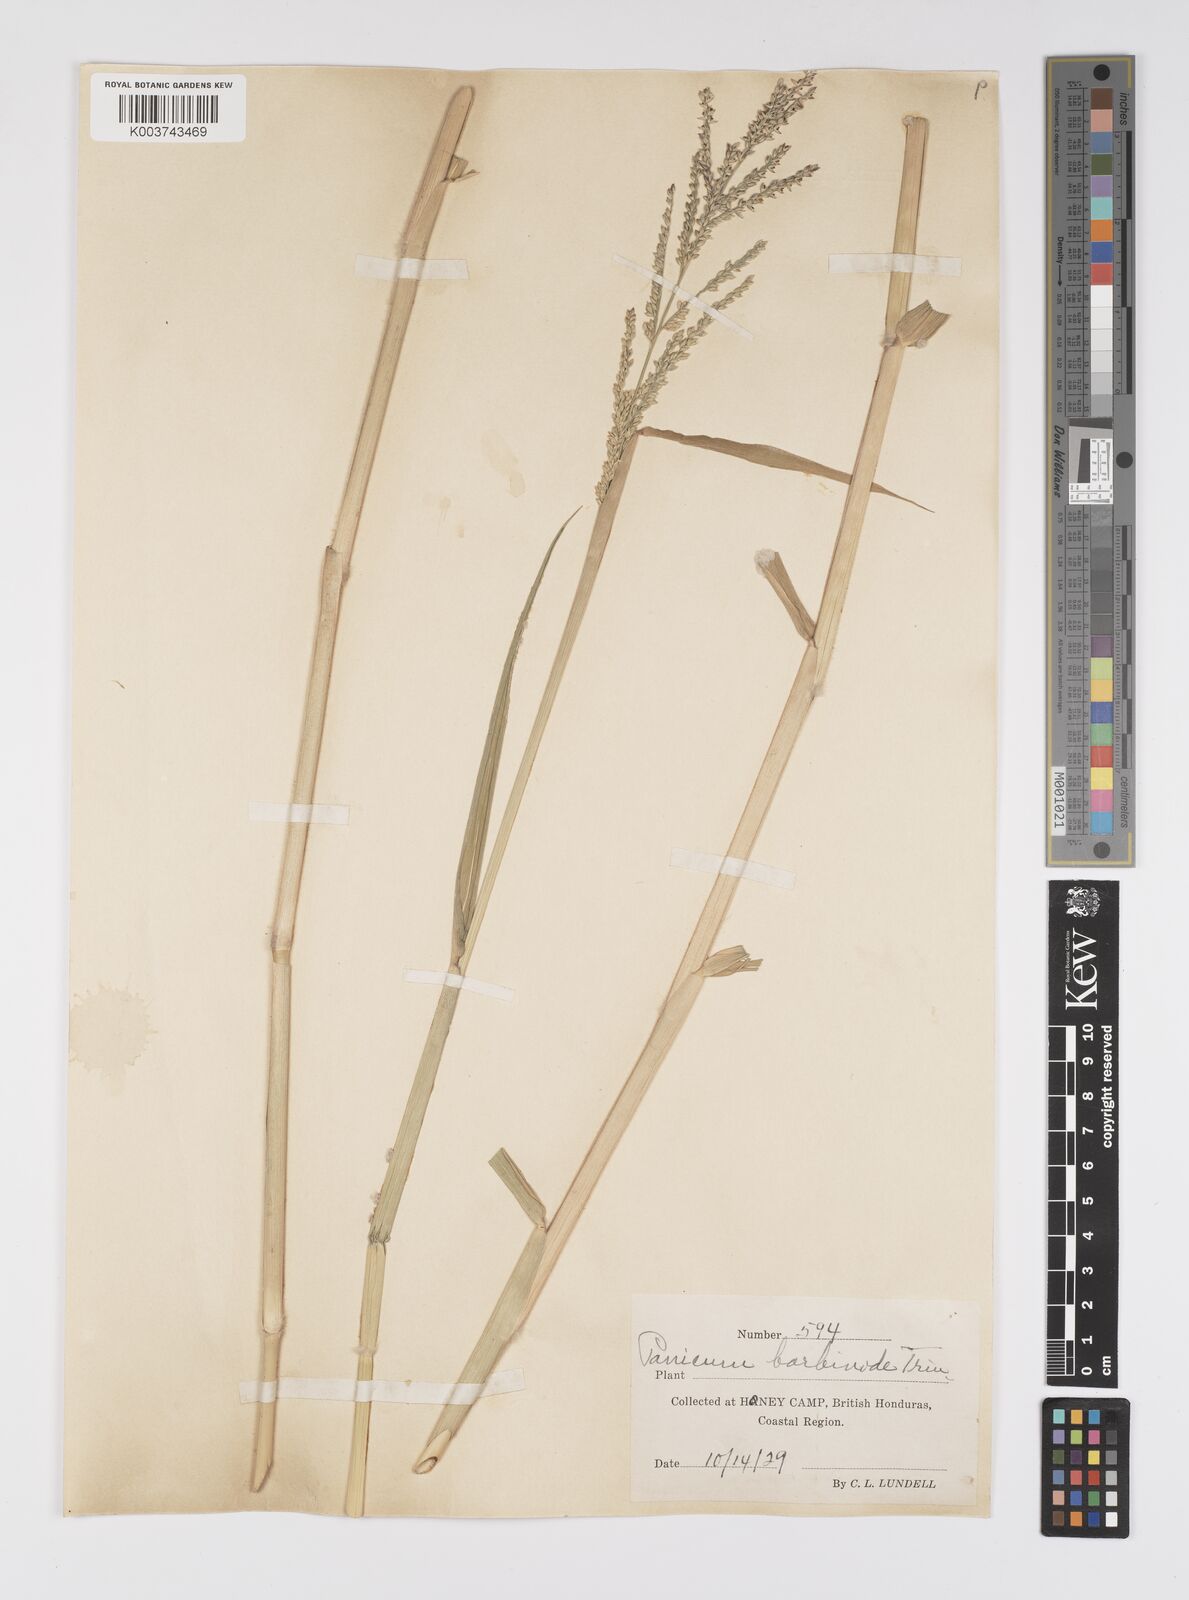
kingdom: Plantae
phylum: Tracheophyta
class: Liliopsida
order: Poales
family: Poaceae
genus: Urochloa
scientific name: Urochloa mutica
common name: Para grass
